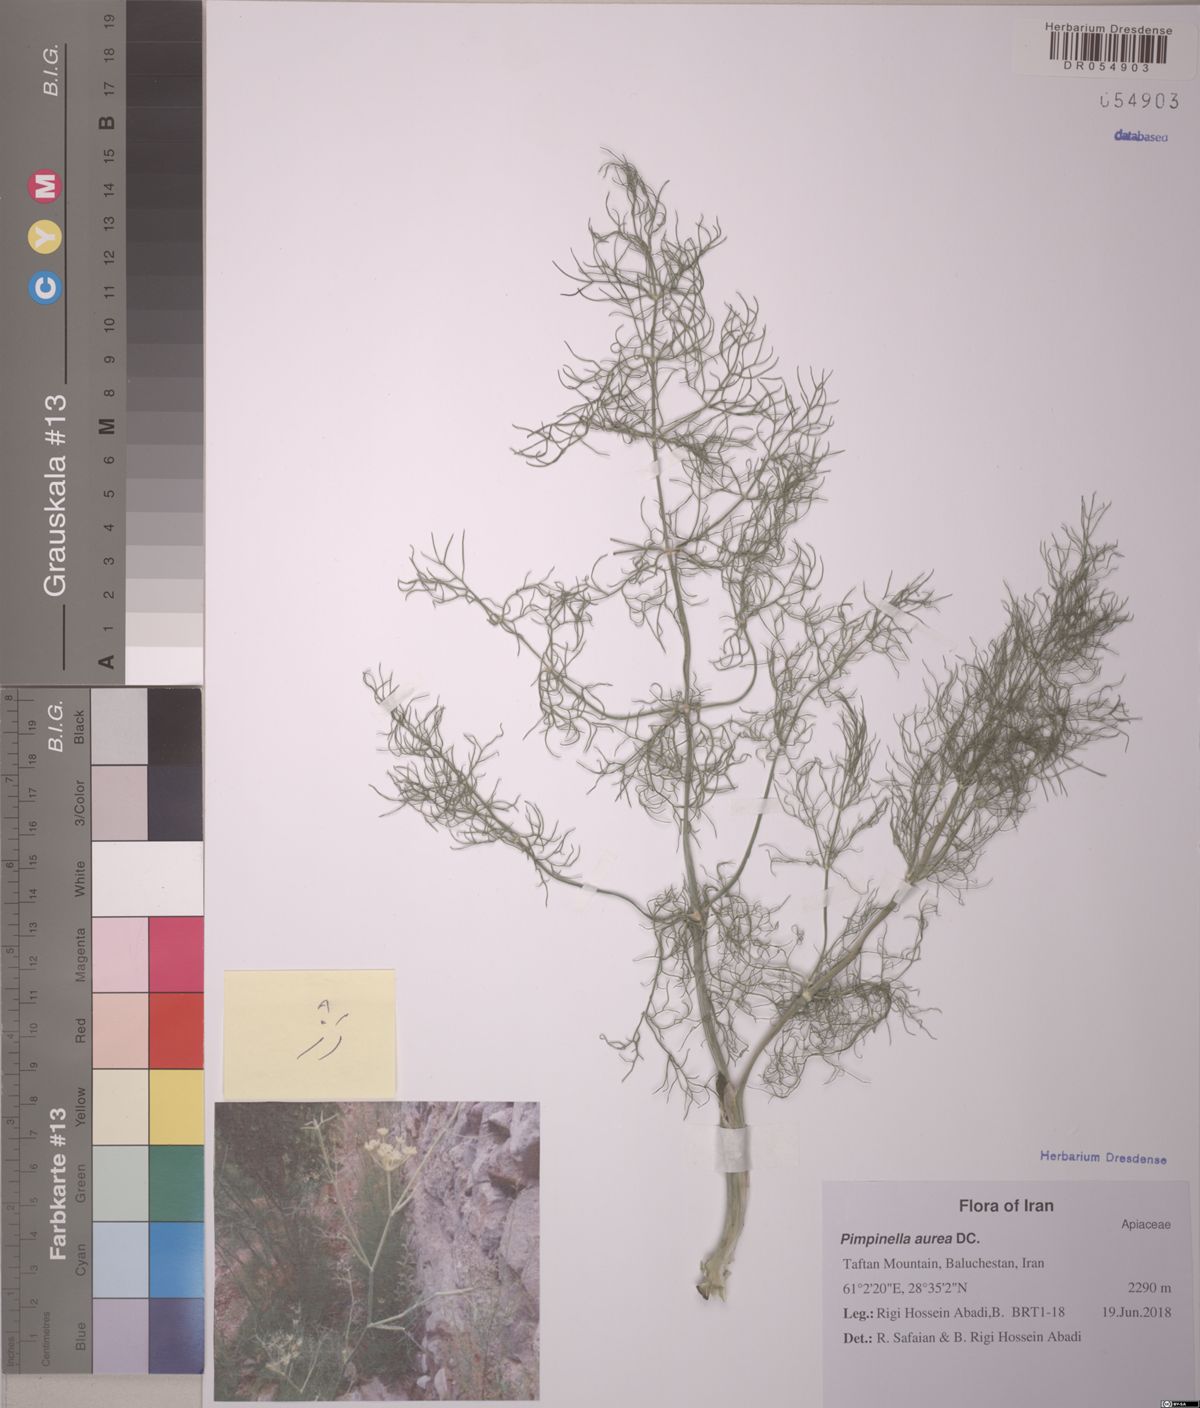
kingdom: Plantae
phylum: Tracheophyta
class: Magnoliopsida
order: Apiales
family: Apiaceae
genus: Foeniculum
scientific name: Foeniculum vulgare
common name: Fennel
